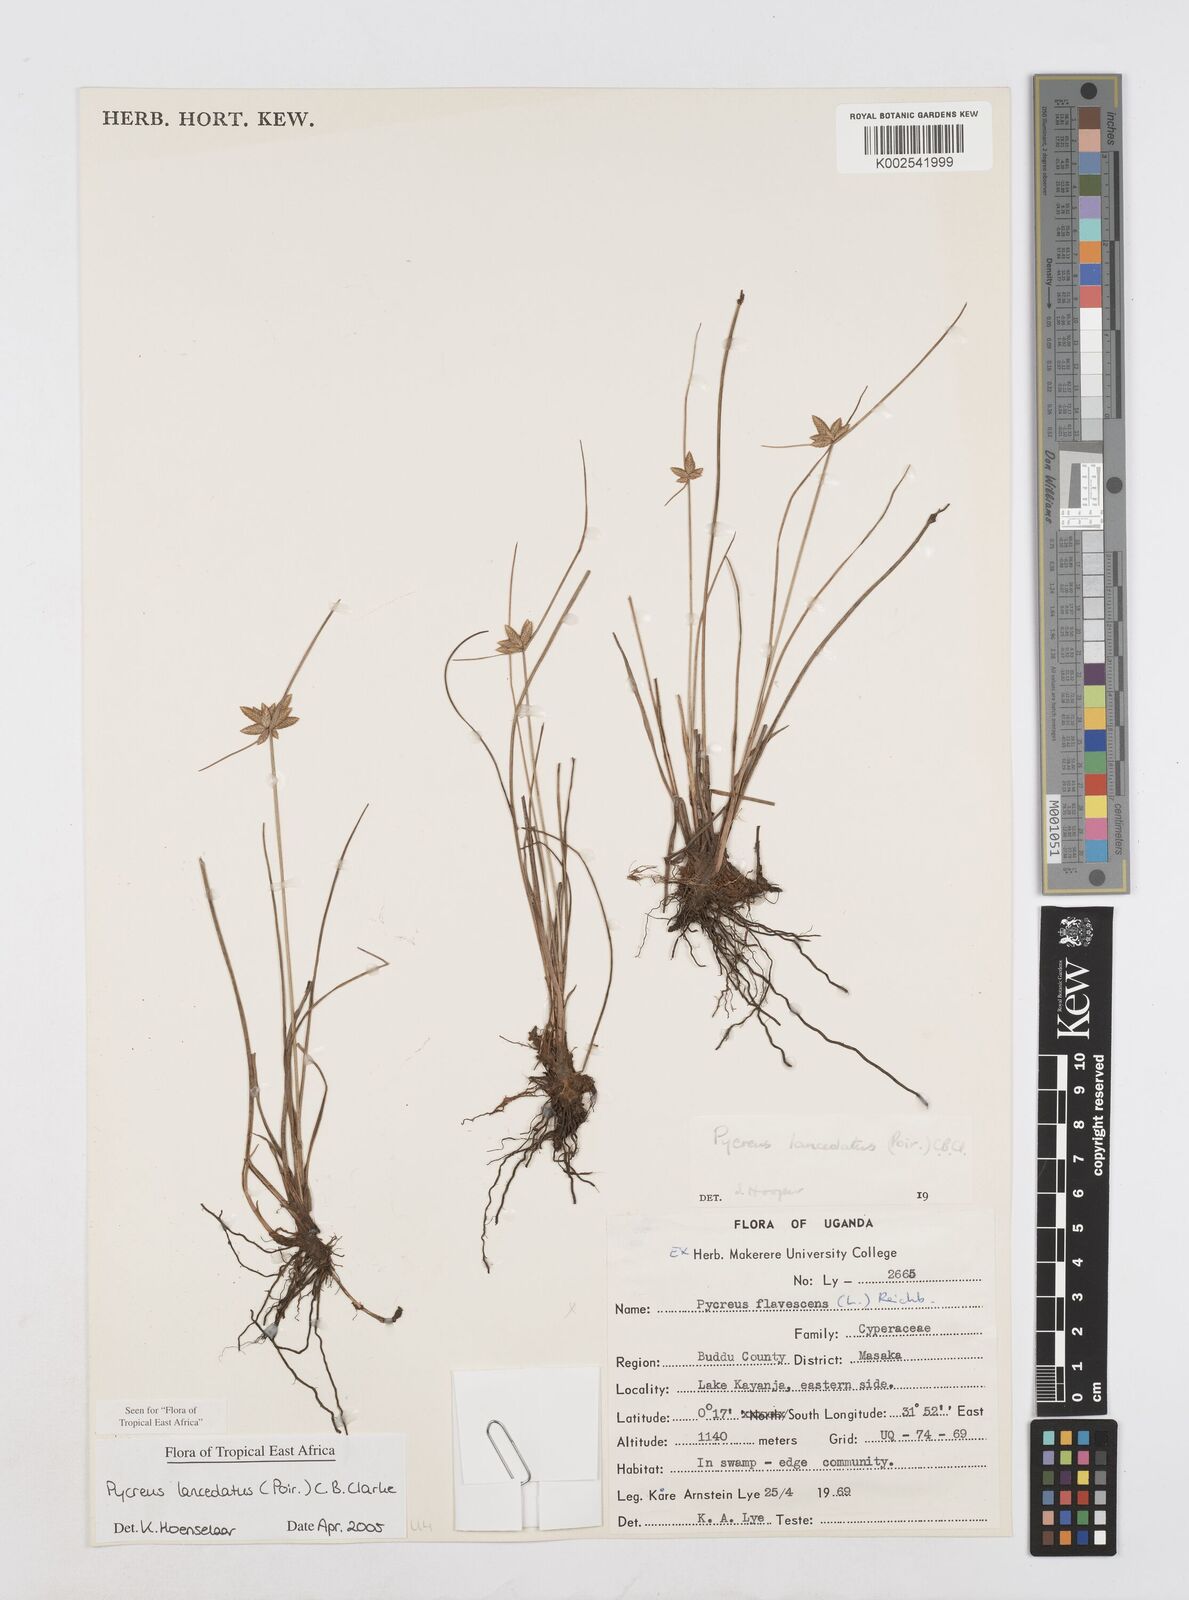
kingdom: Plantae
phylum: Tracheophyta
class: Liliopsida
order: Poales
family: Cyperaceae
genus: Cyperus
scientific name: Cyperus lanceolatus
